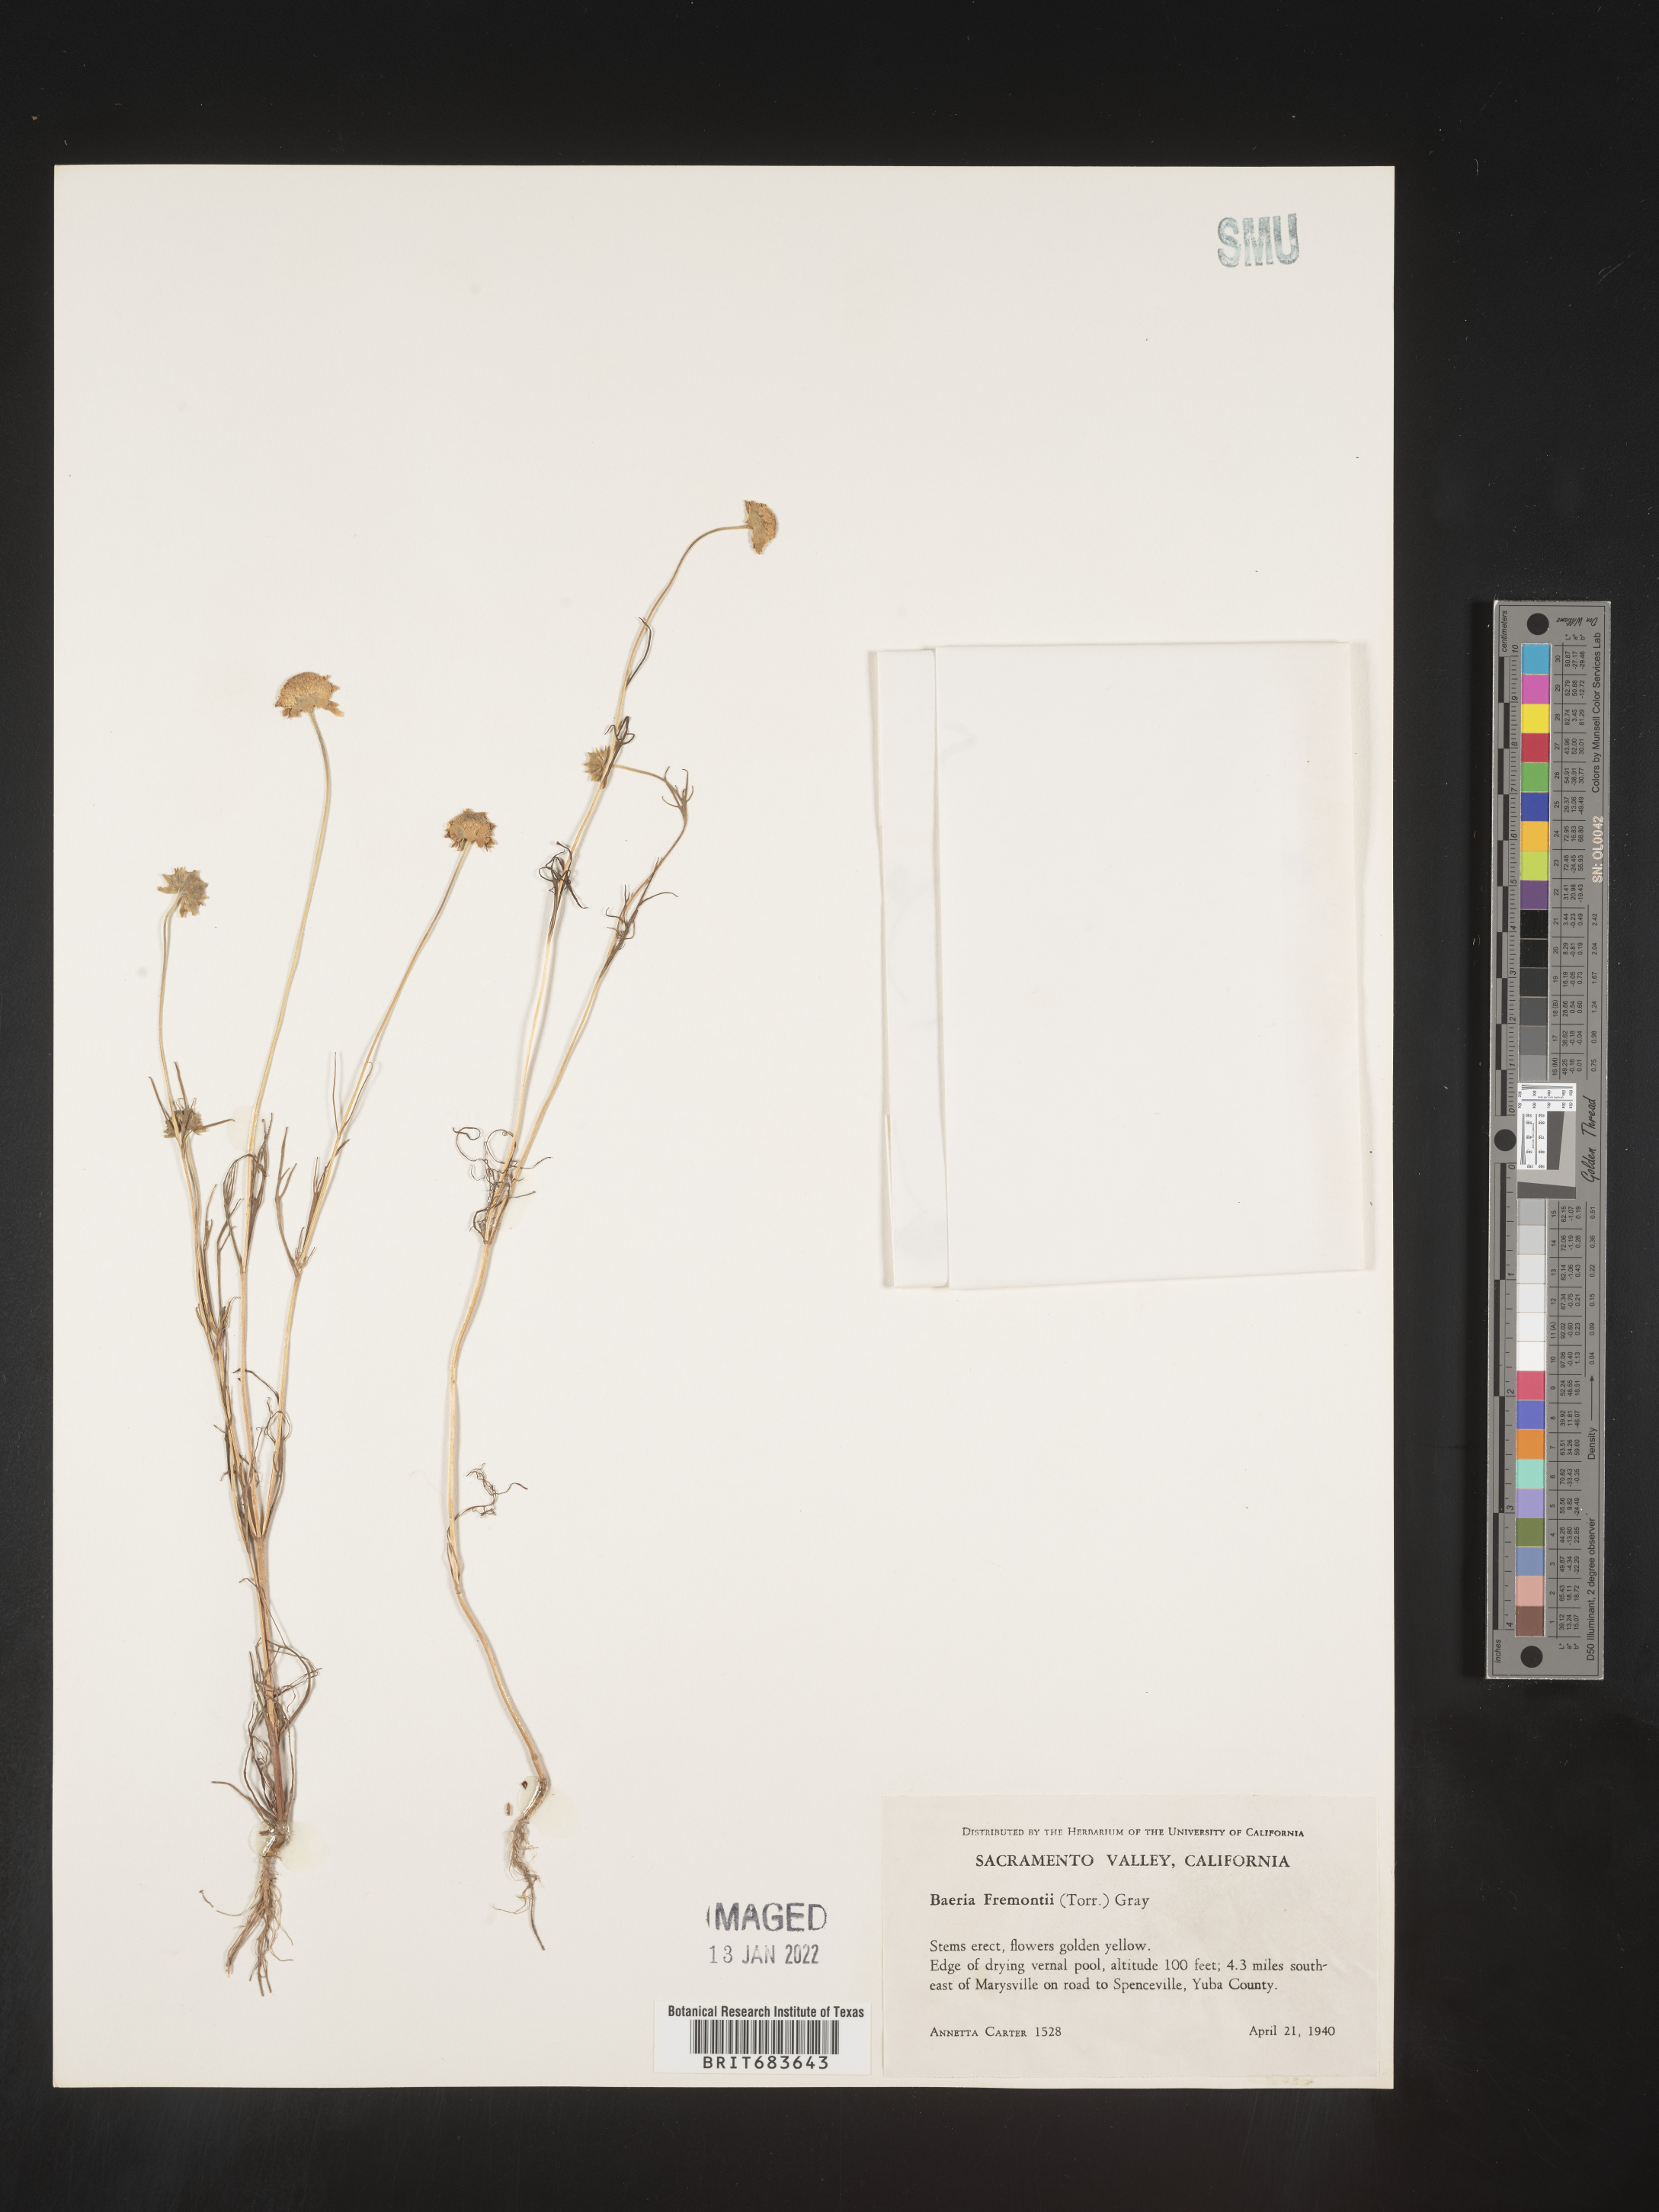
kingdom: Plantae
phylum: Tracheophyta
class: Magnoliopsida
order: Asterales
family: Asteraceae
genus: Lasthenia
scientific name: Lasthenia
